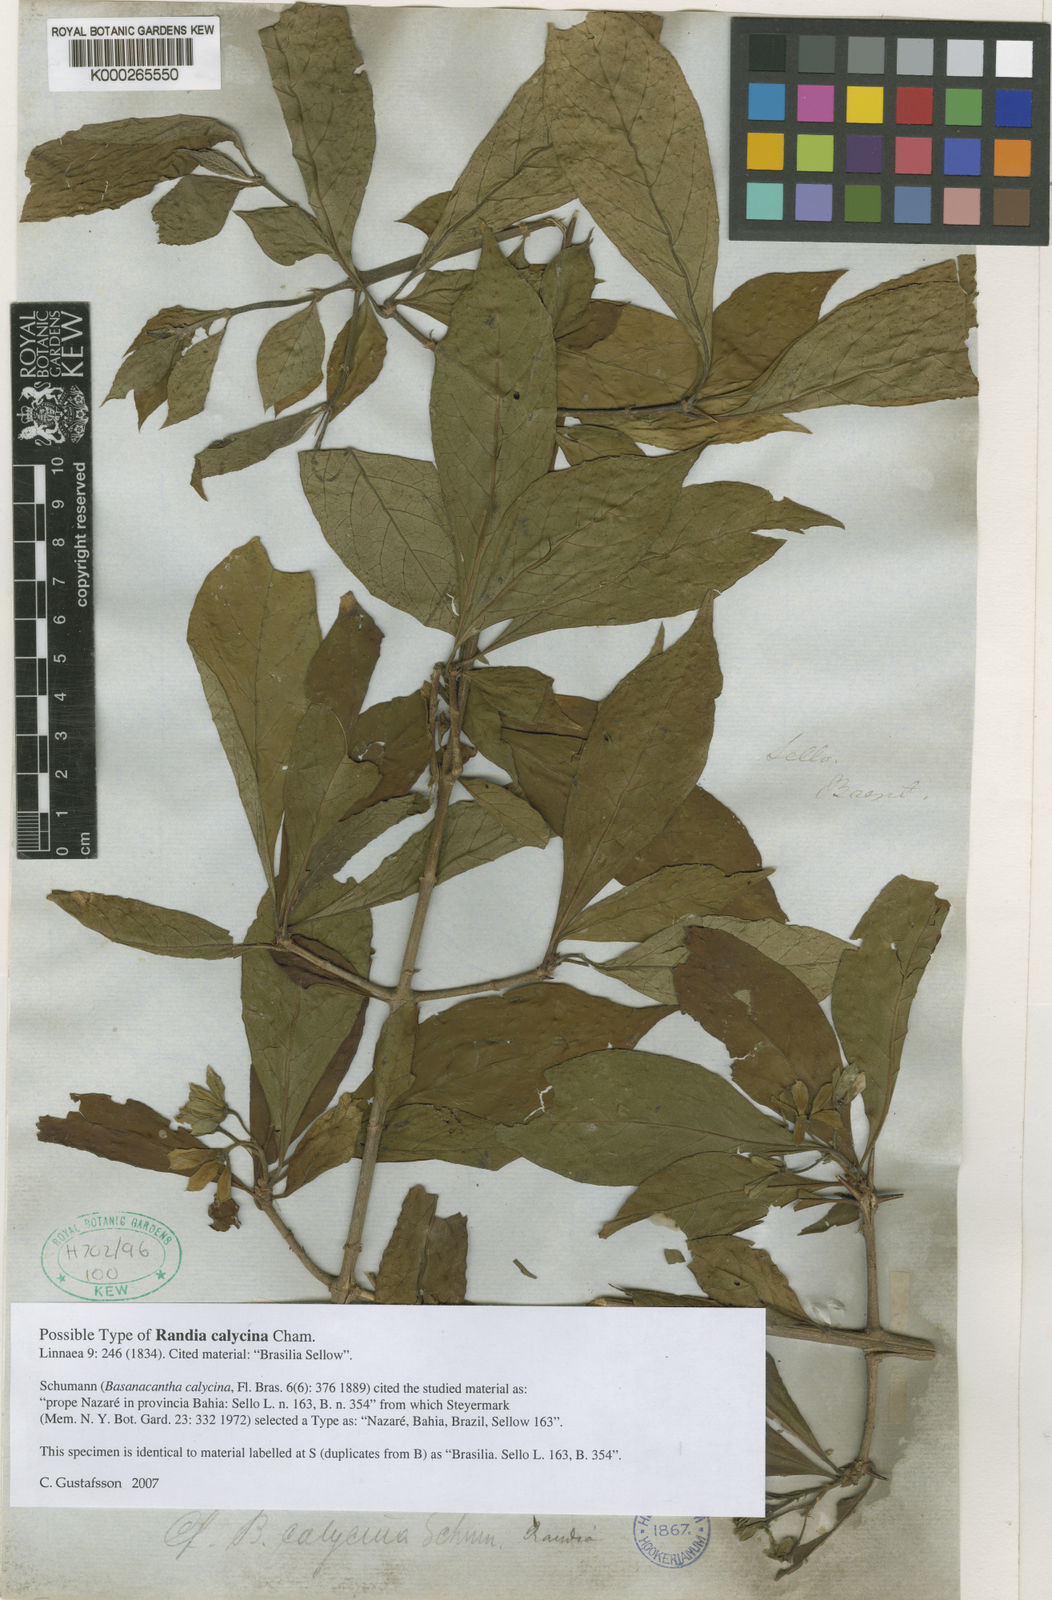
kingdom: Plantae
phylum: Tracheophyta
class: Magnoliopsida
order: Gentianales
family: Rubiaceae
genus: Randia
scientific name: Randia calycina
